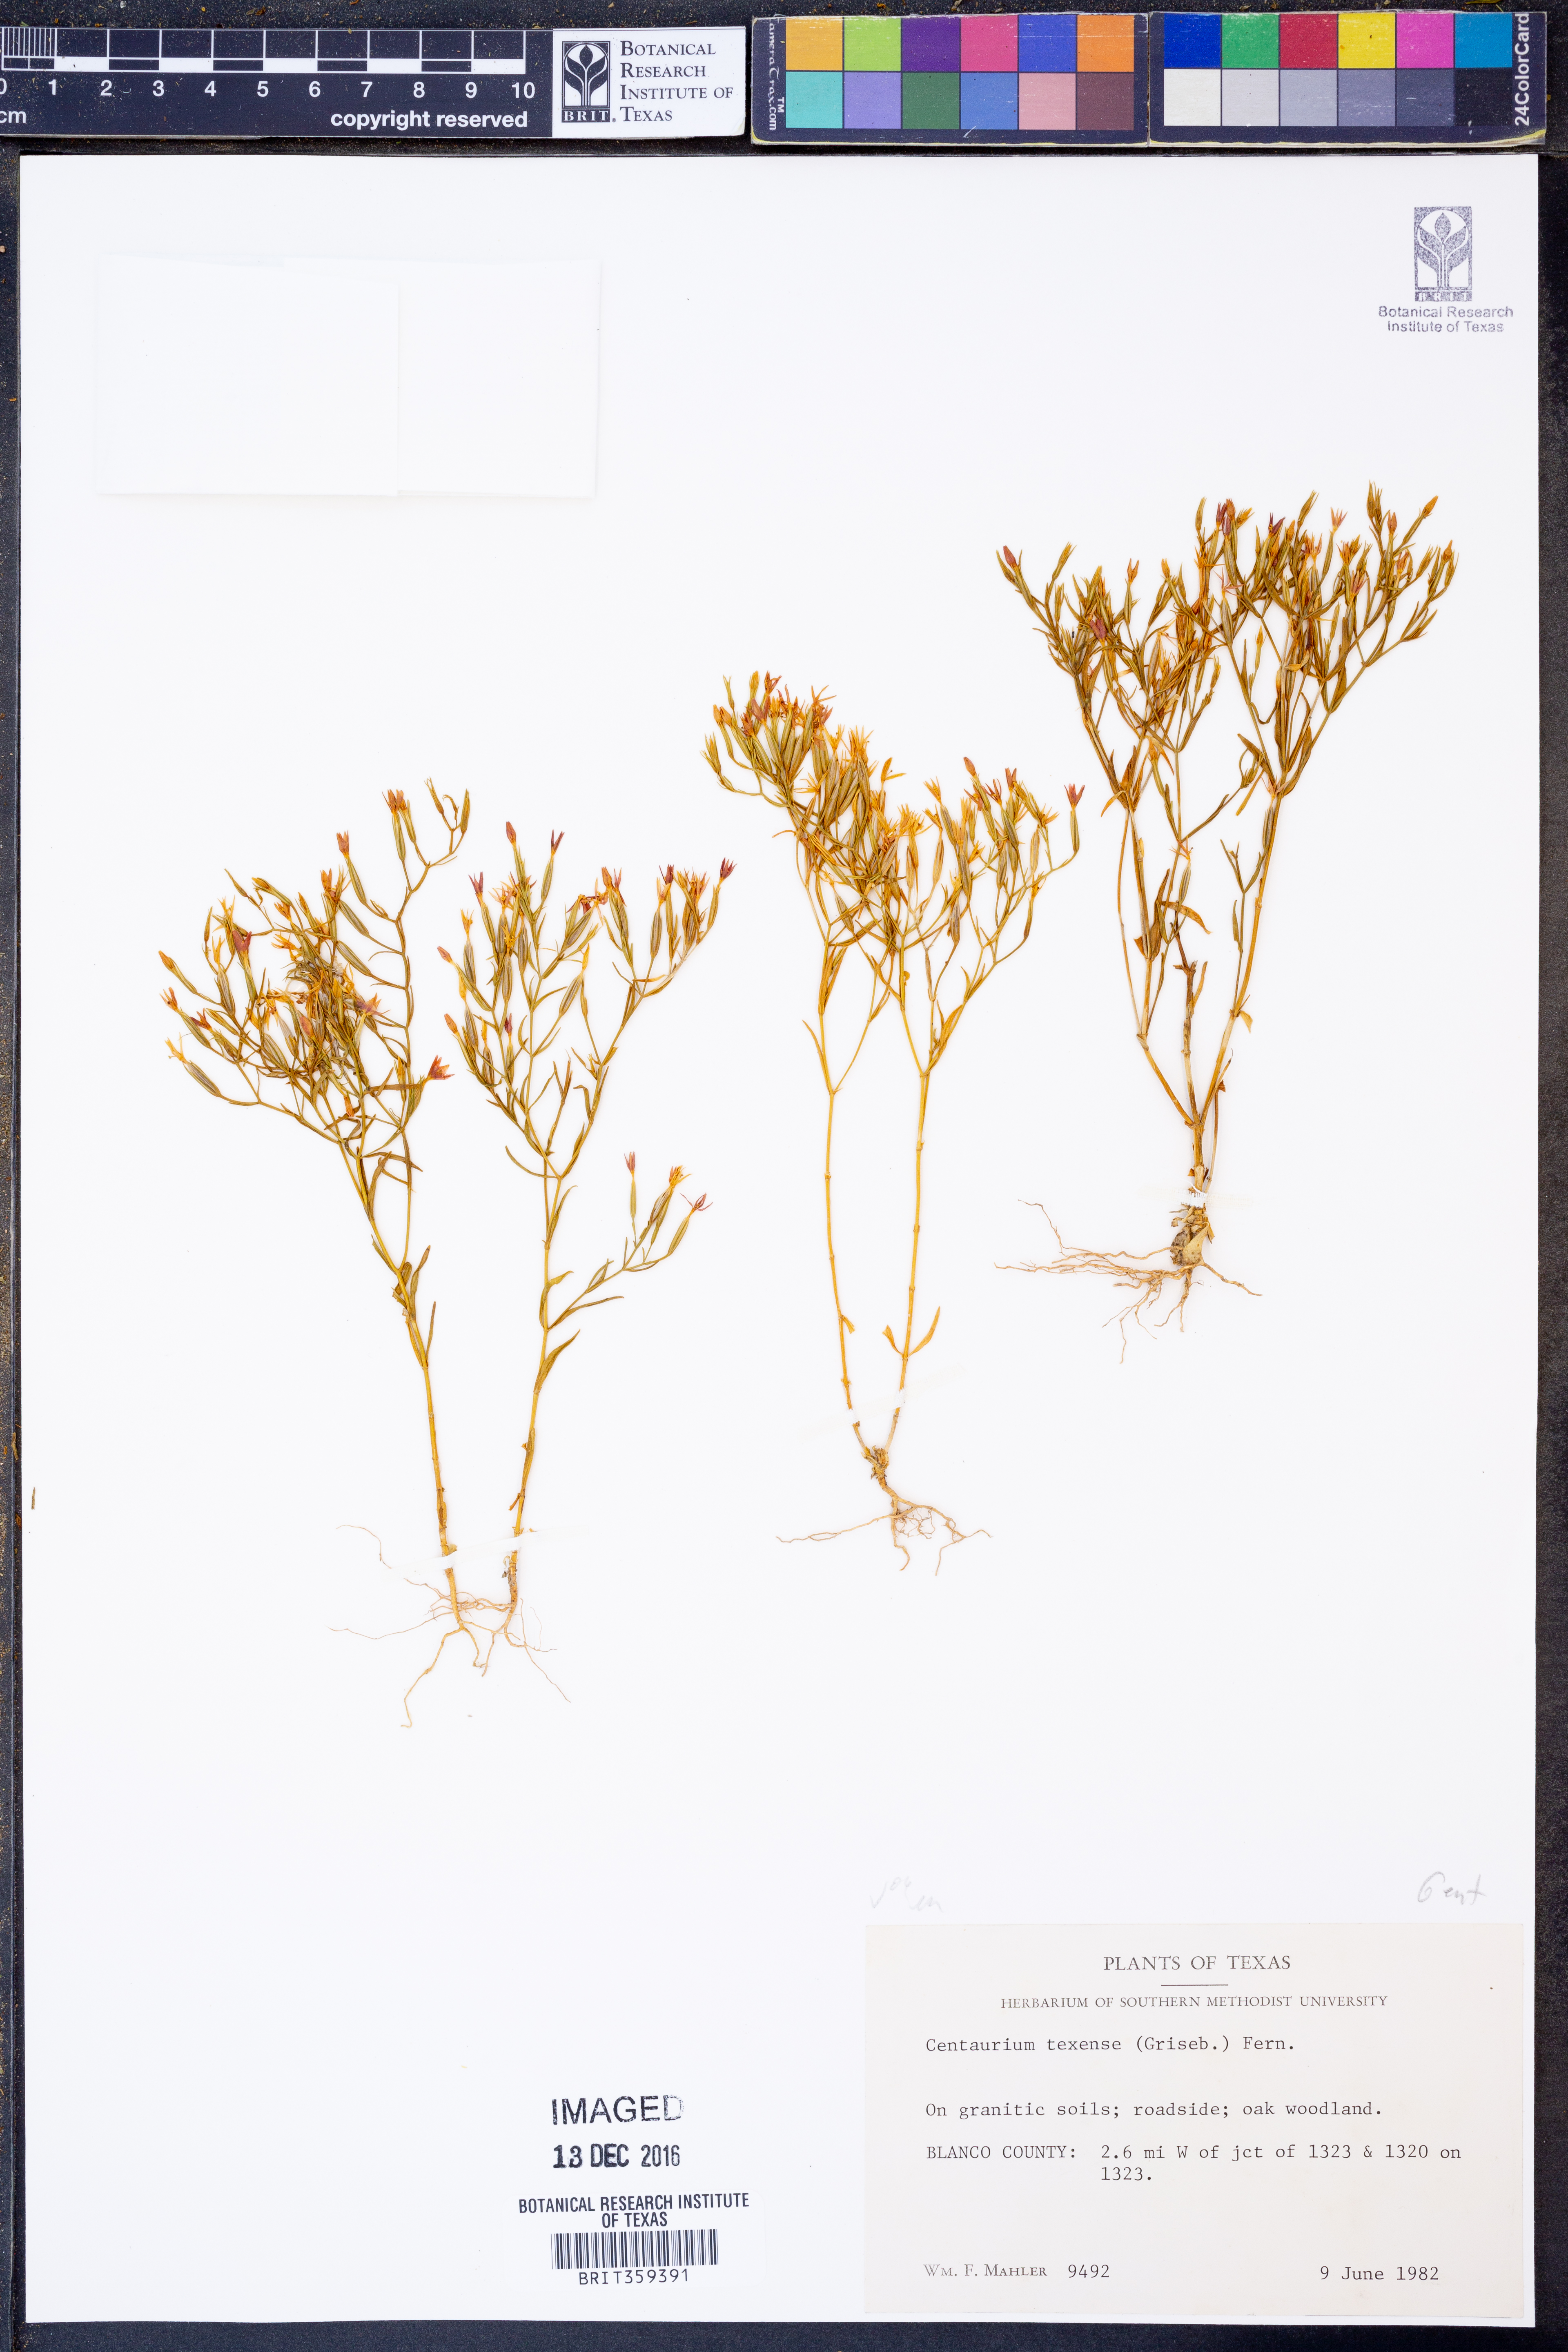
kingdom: Plantae
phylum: Tracheophyta
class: Magnoliopsida
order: Gentianales
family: Gentianaceae
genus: Zeltnera
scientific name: Zeltnera texensis
